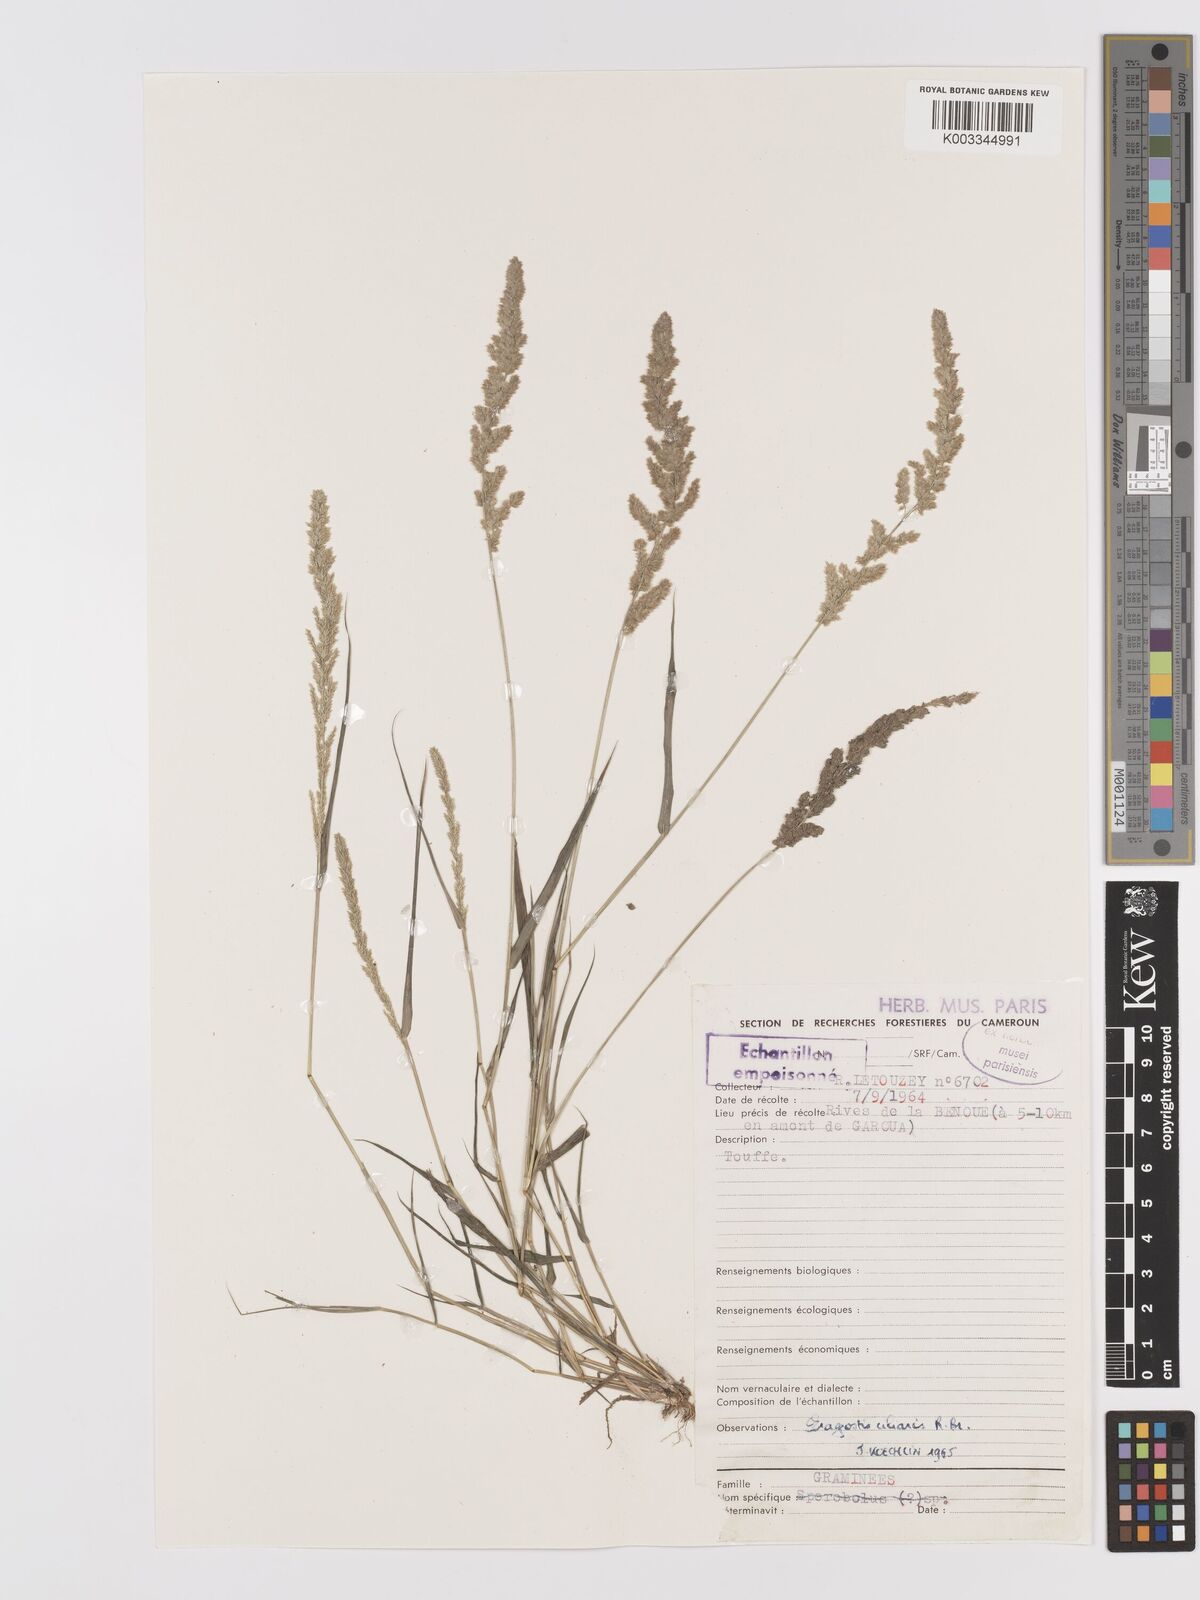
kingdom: Plantae
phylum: Tracheophyta
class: Liliopsida
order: Poales
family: Poaceae
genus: Eragrostis
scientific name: Eragrostis ciliaris
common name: Gophertail lovegrass
